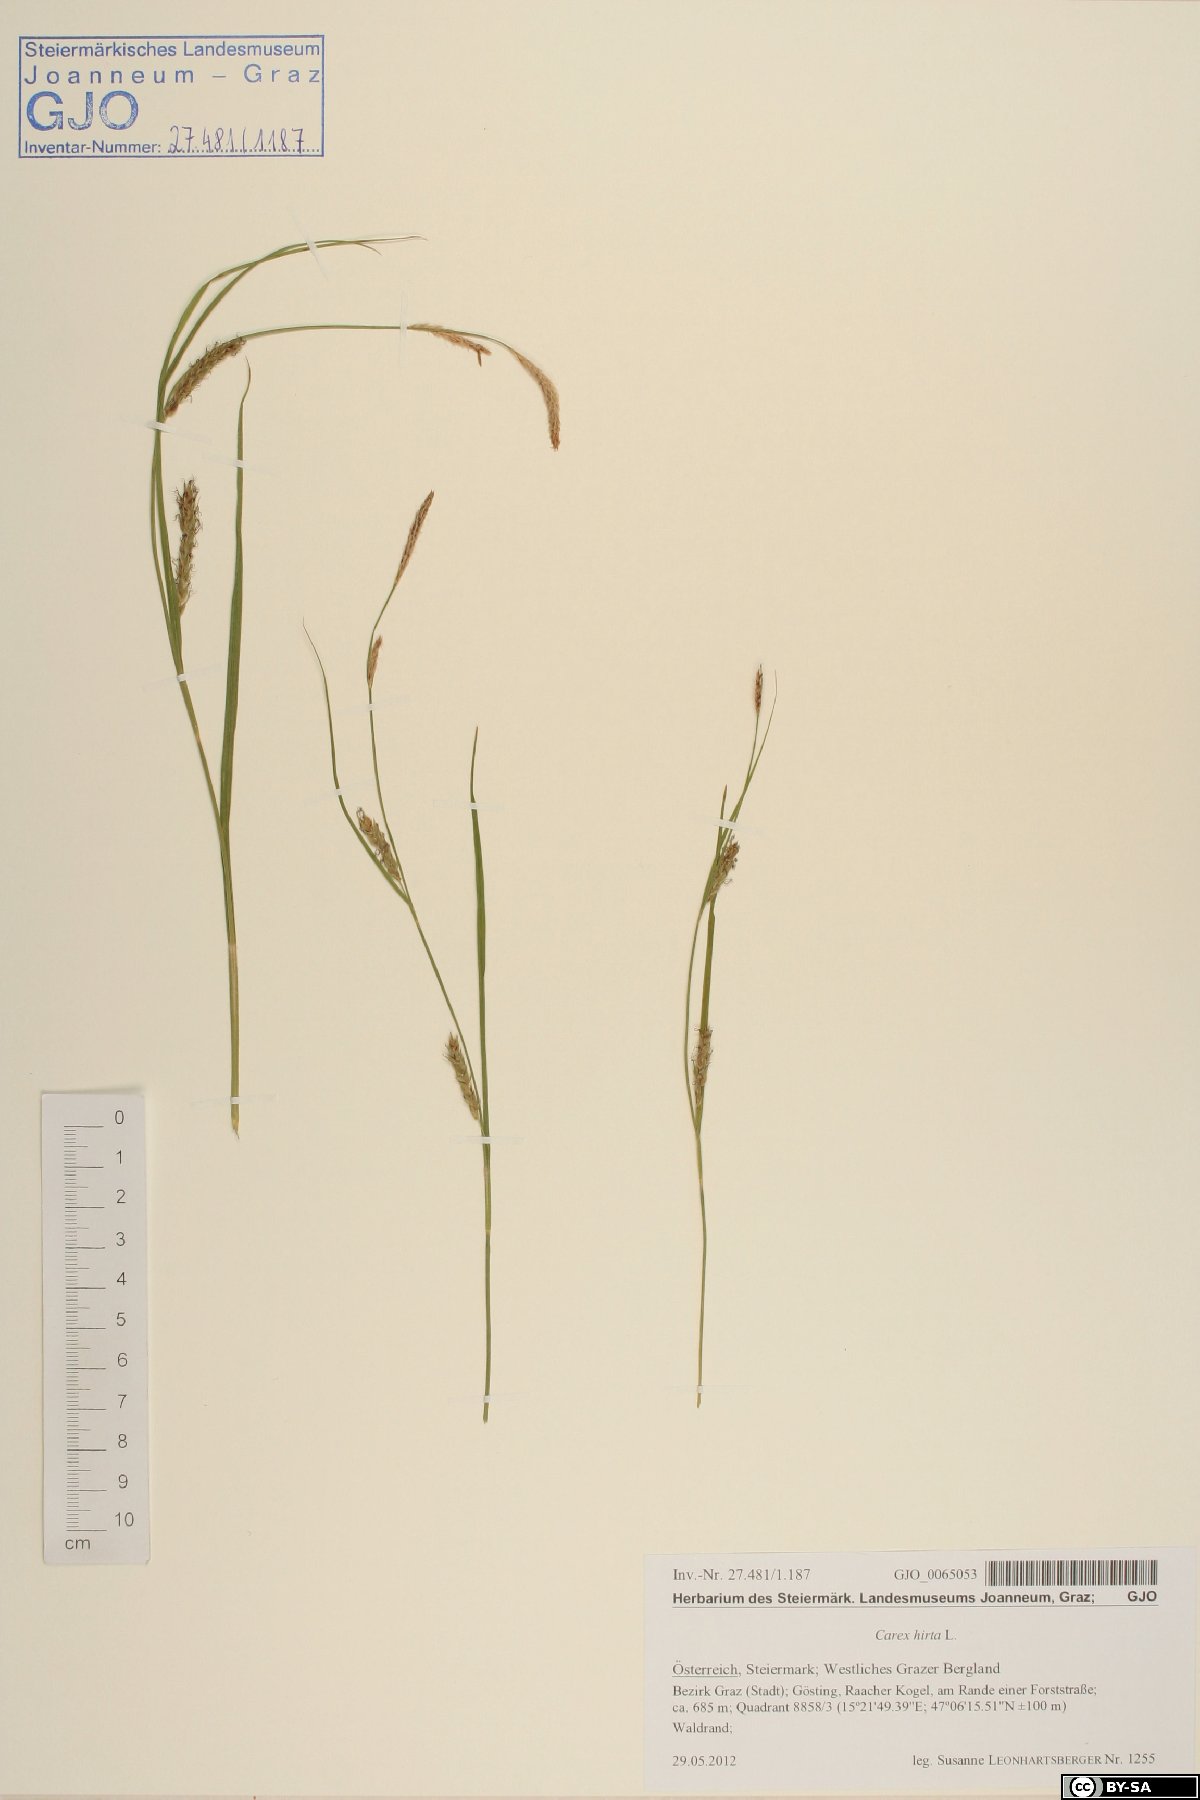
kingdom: Plantae
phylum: Tracheophyta
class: Liliopsida
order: Poales
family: Cyperaceae
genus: Carex
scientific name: Carex hirta
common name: Hairy sedge
